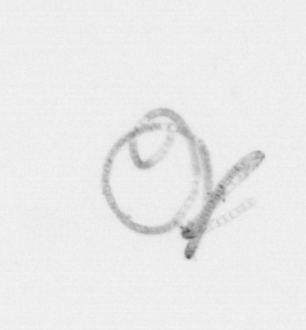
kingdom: Chromista
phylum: Ochrophyta
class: Bacillariophyceae
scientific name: Bacillariophyceae
